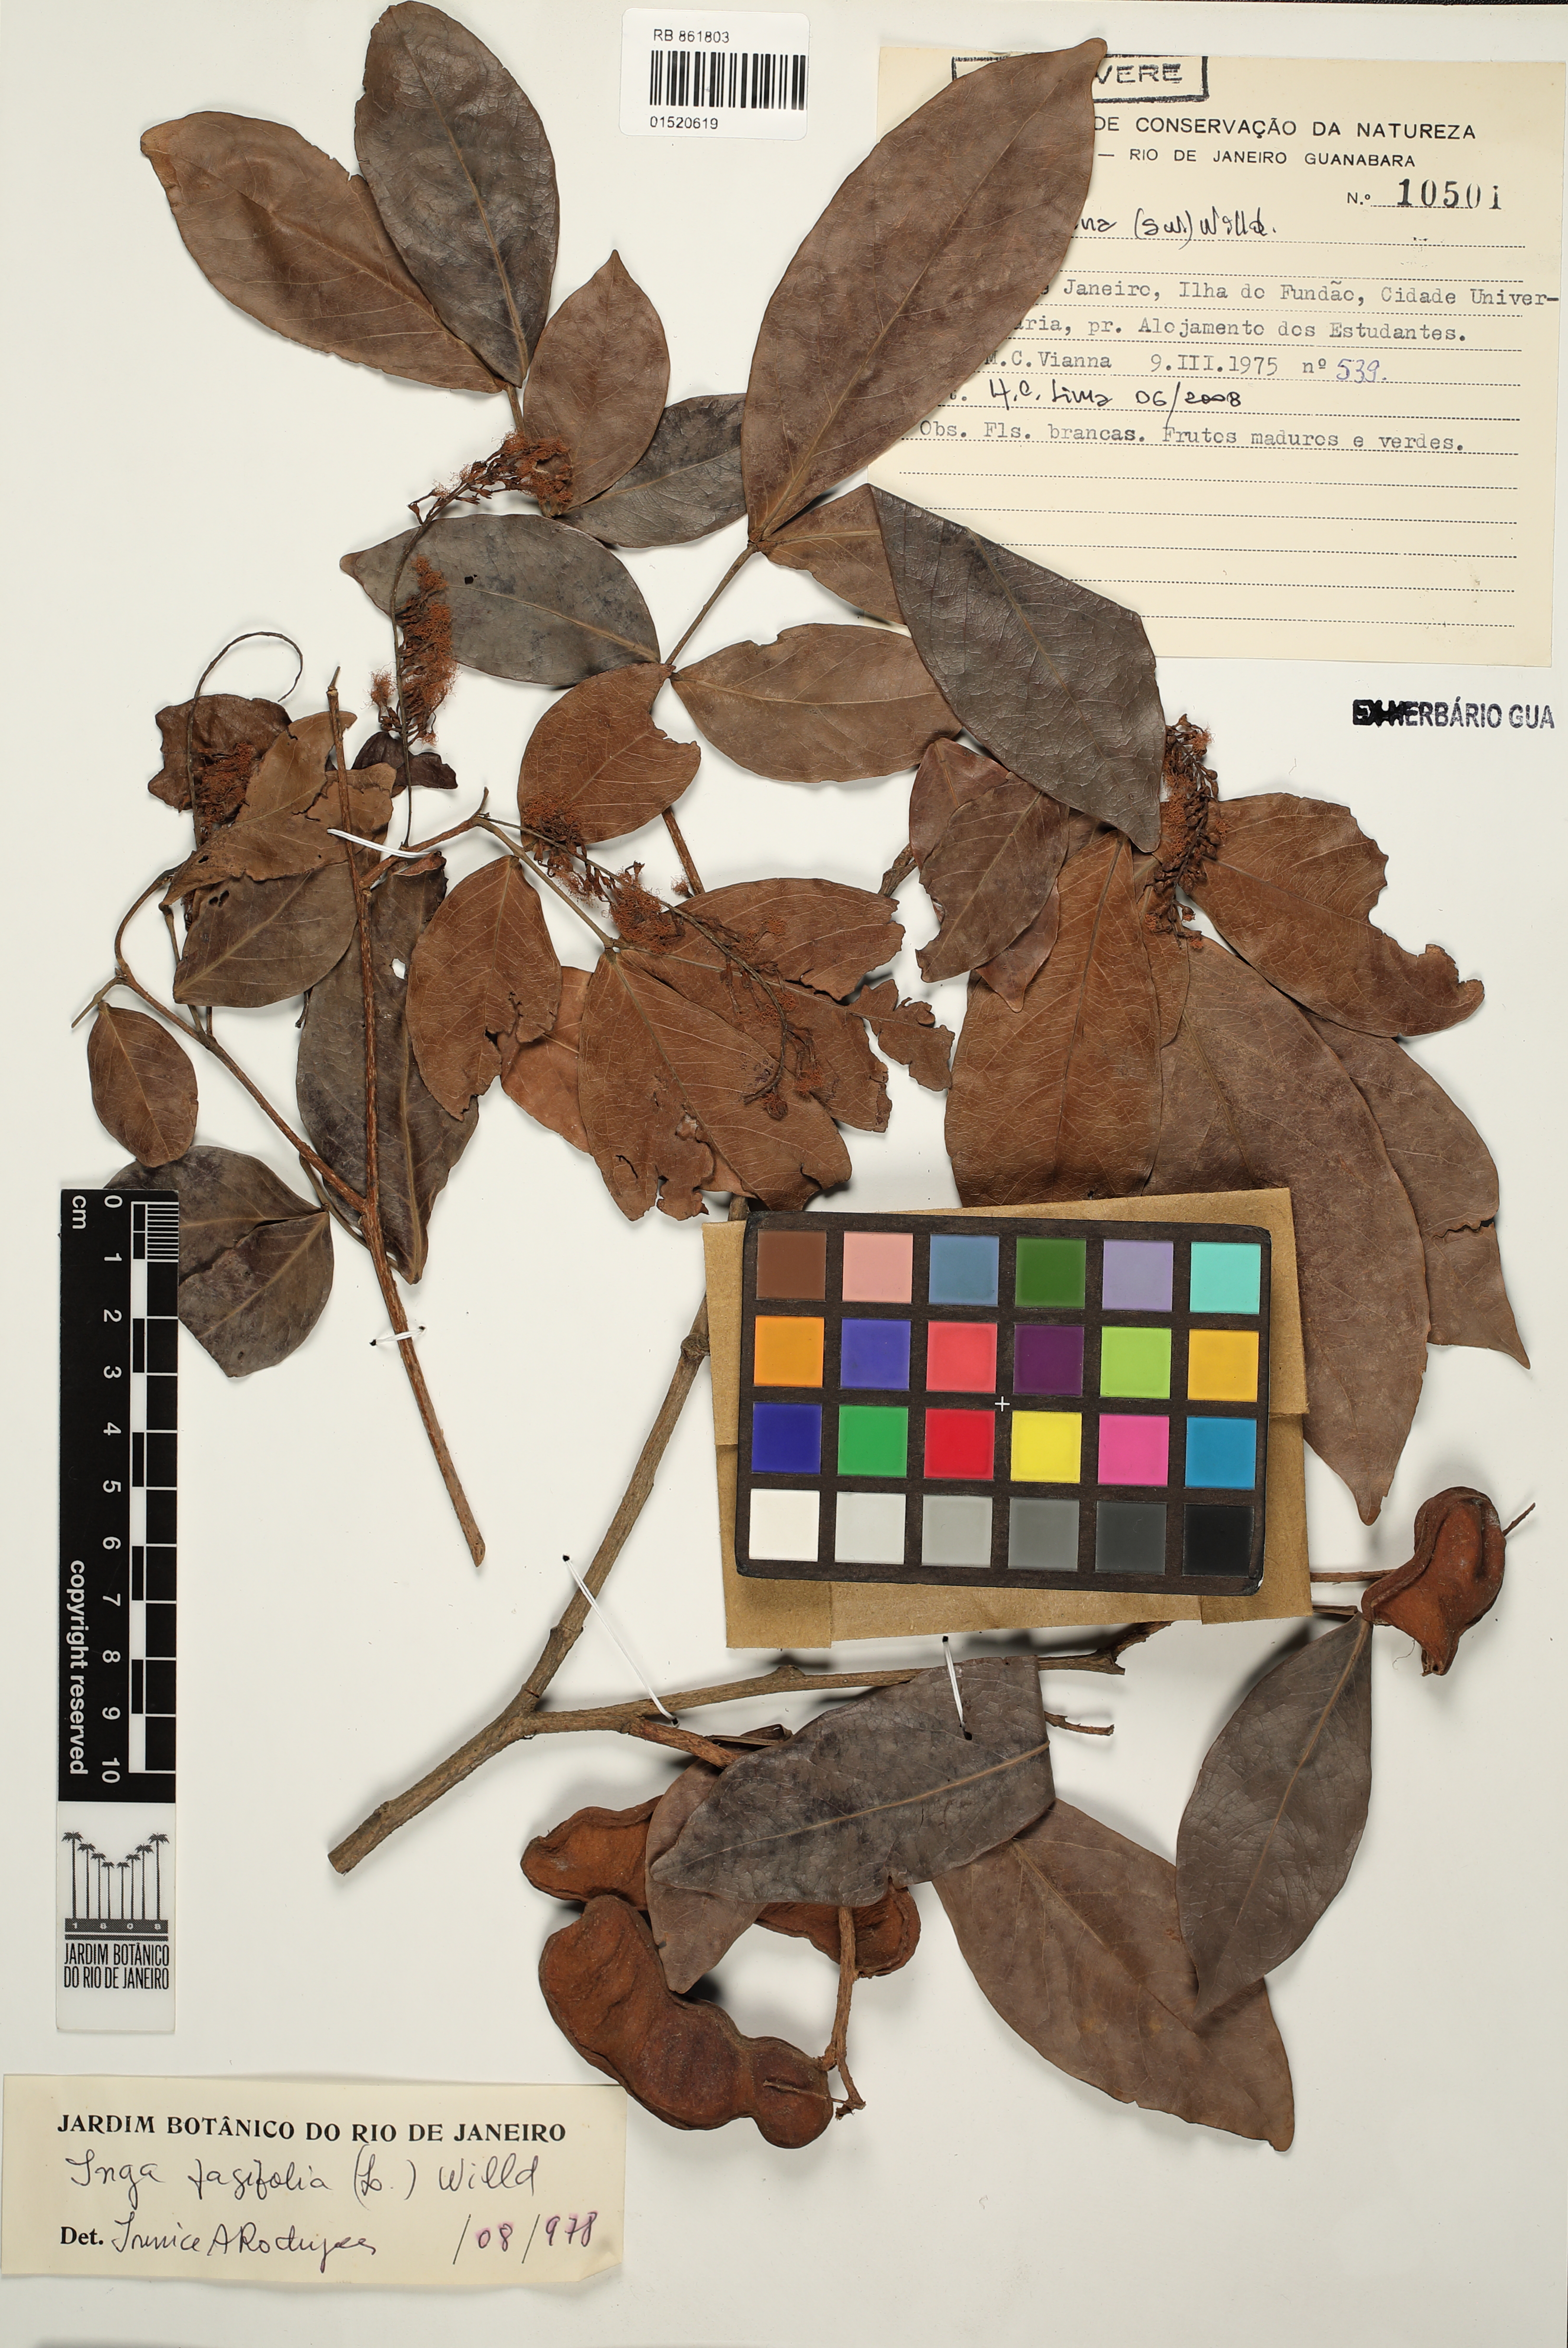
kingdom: Plantae
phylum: Tracheophyta
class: Magnoliopsida
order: Fabales
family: Fabaceae
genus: Inga
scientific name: Inga laurina
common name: Red wood
